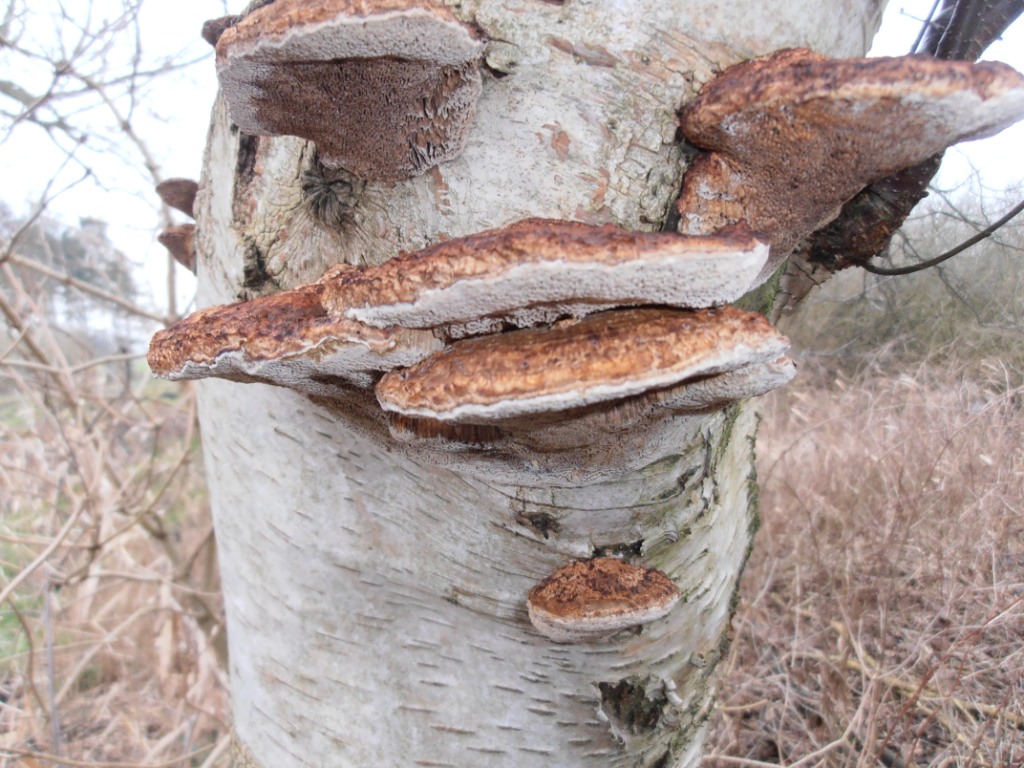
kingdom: Fungi
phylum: Basidiomycota
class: Agaricomycetes
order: Polyporales
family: Polyporaceae
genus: Daedaleopsis
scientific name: Daedaleopsis confragosa
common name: rødmende læderporesvamp
